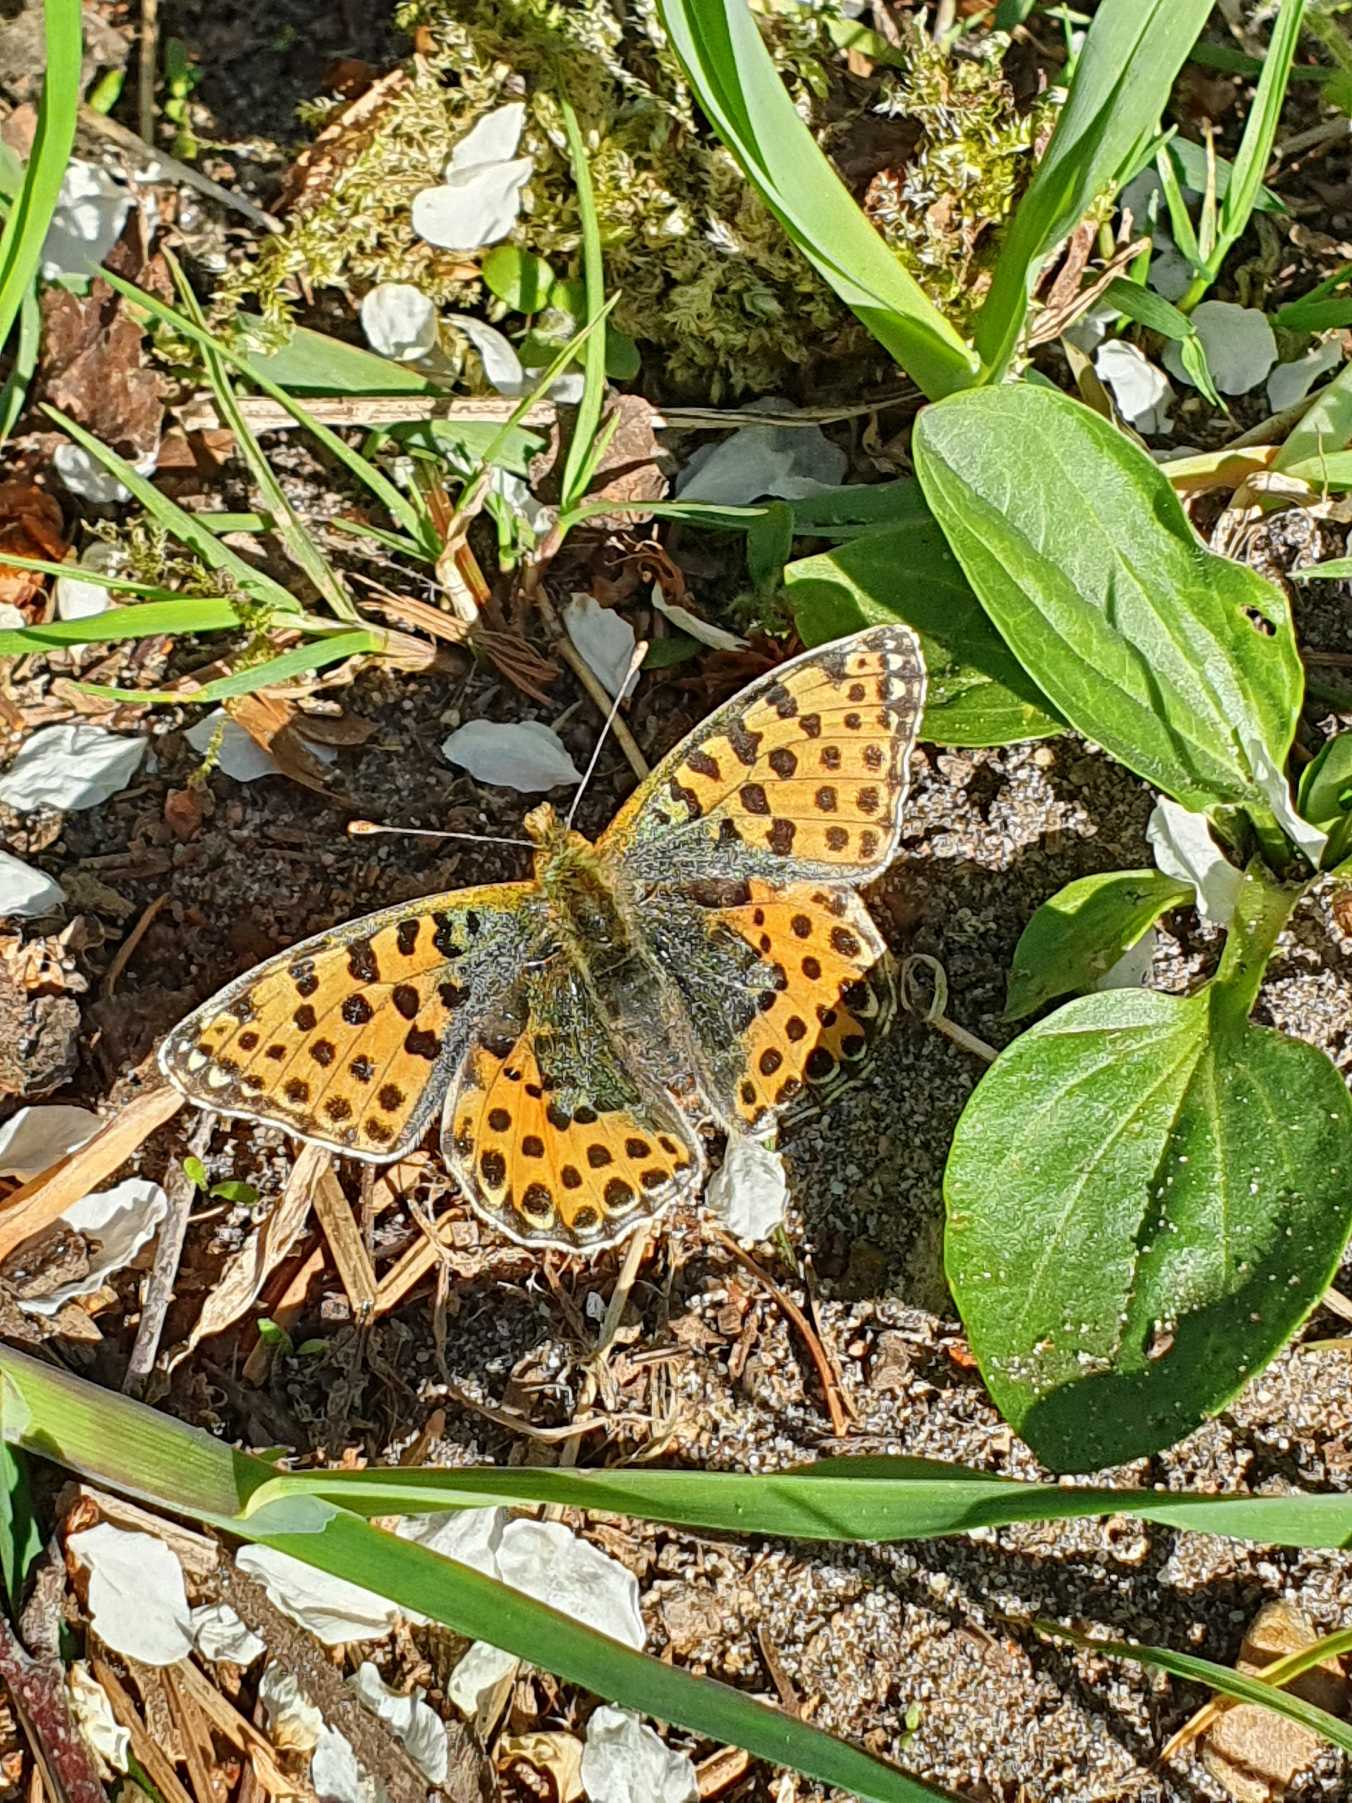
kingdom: Animalia
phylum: Arthropoda
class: Insecta
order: Lepidoptera
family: Nymphalidae
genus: Issoria
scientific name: Issoria lathonia
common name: Storplettet perlemorsommerfugl
